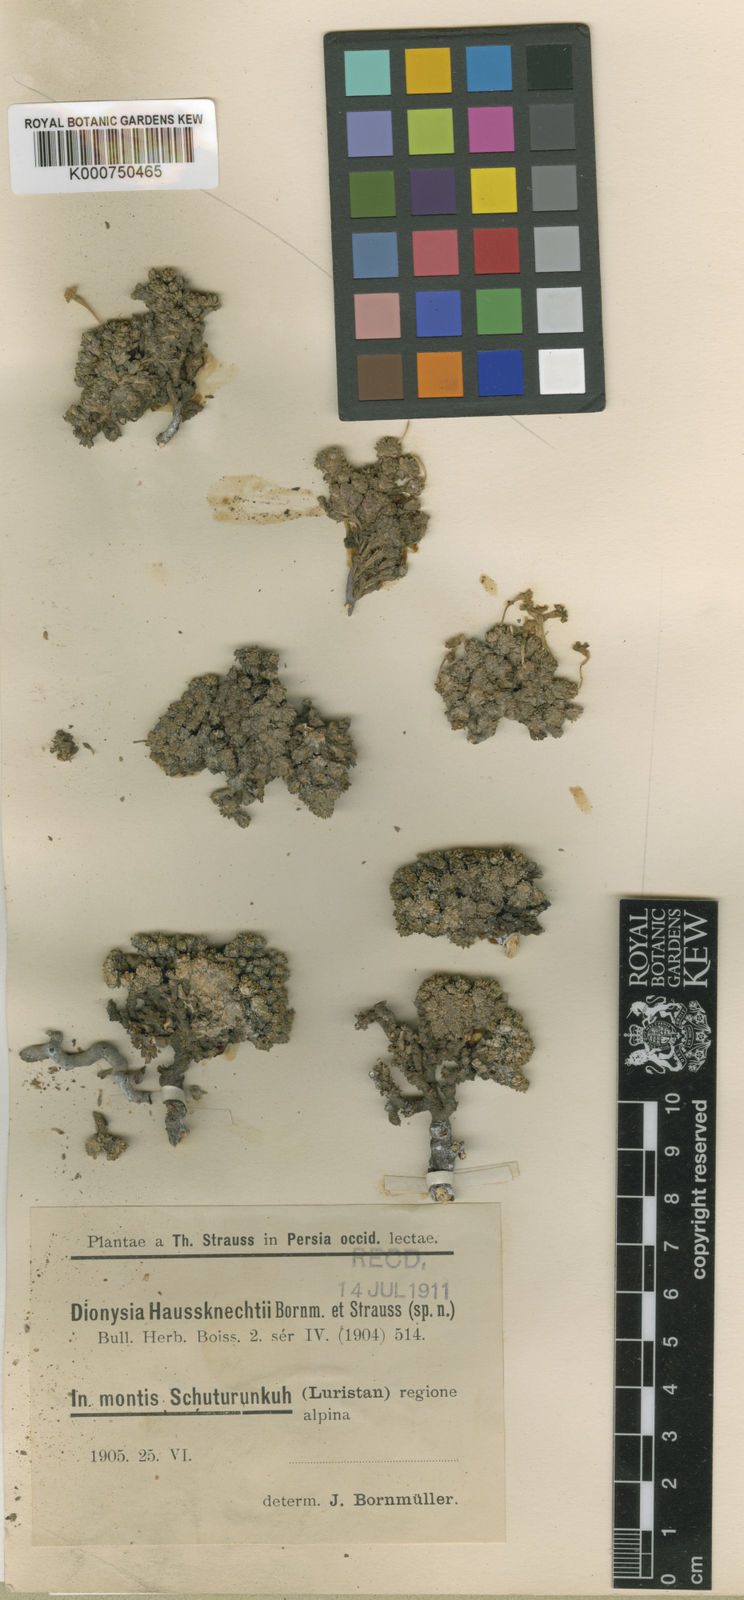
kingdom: Plantae
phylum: Tracheophyta
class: Magnoliopsida
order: Ericales
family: Primulaceae
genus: Dionysia
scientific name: Dionysia haussknechtii
